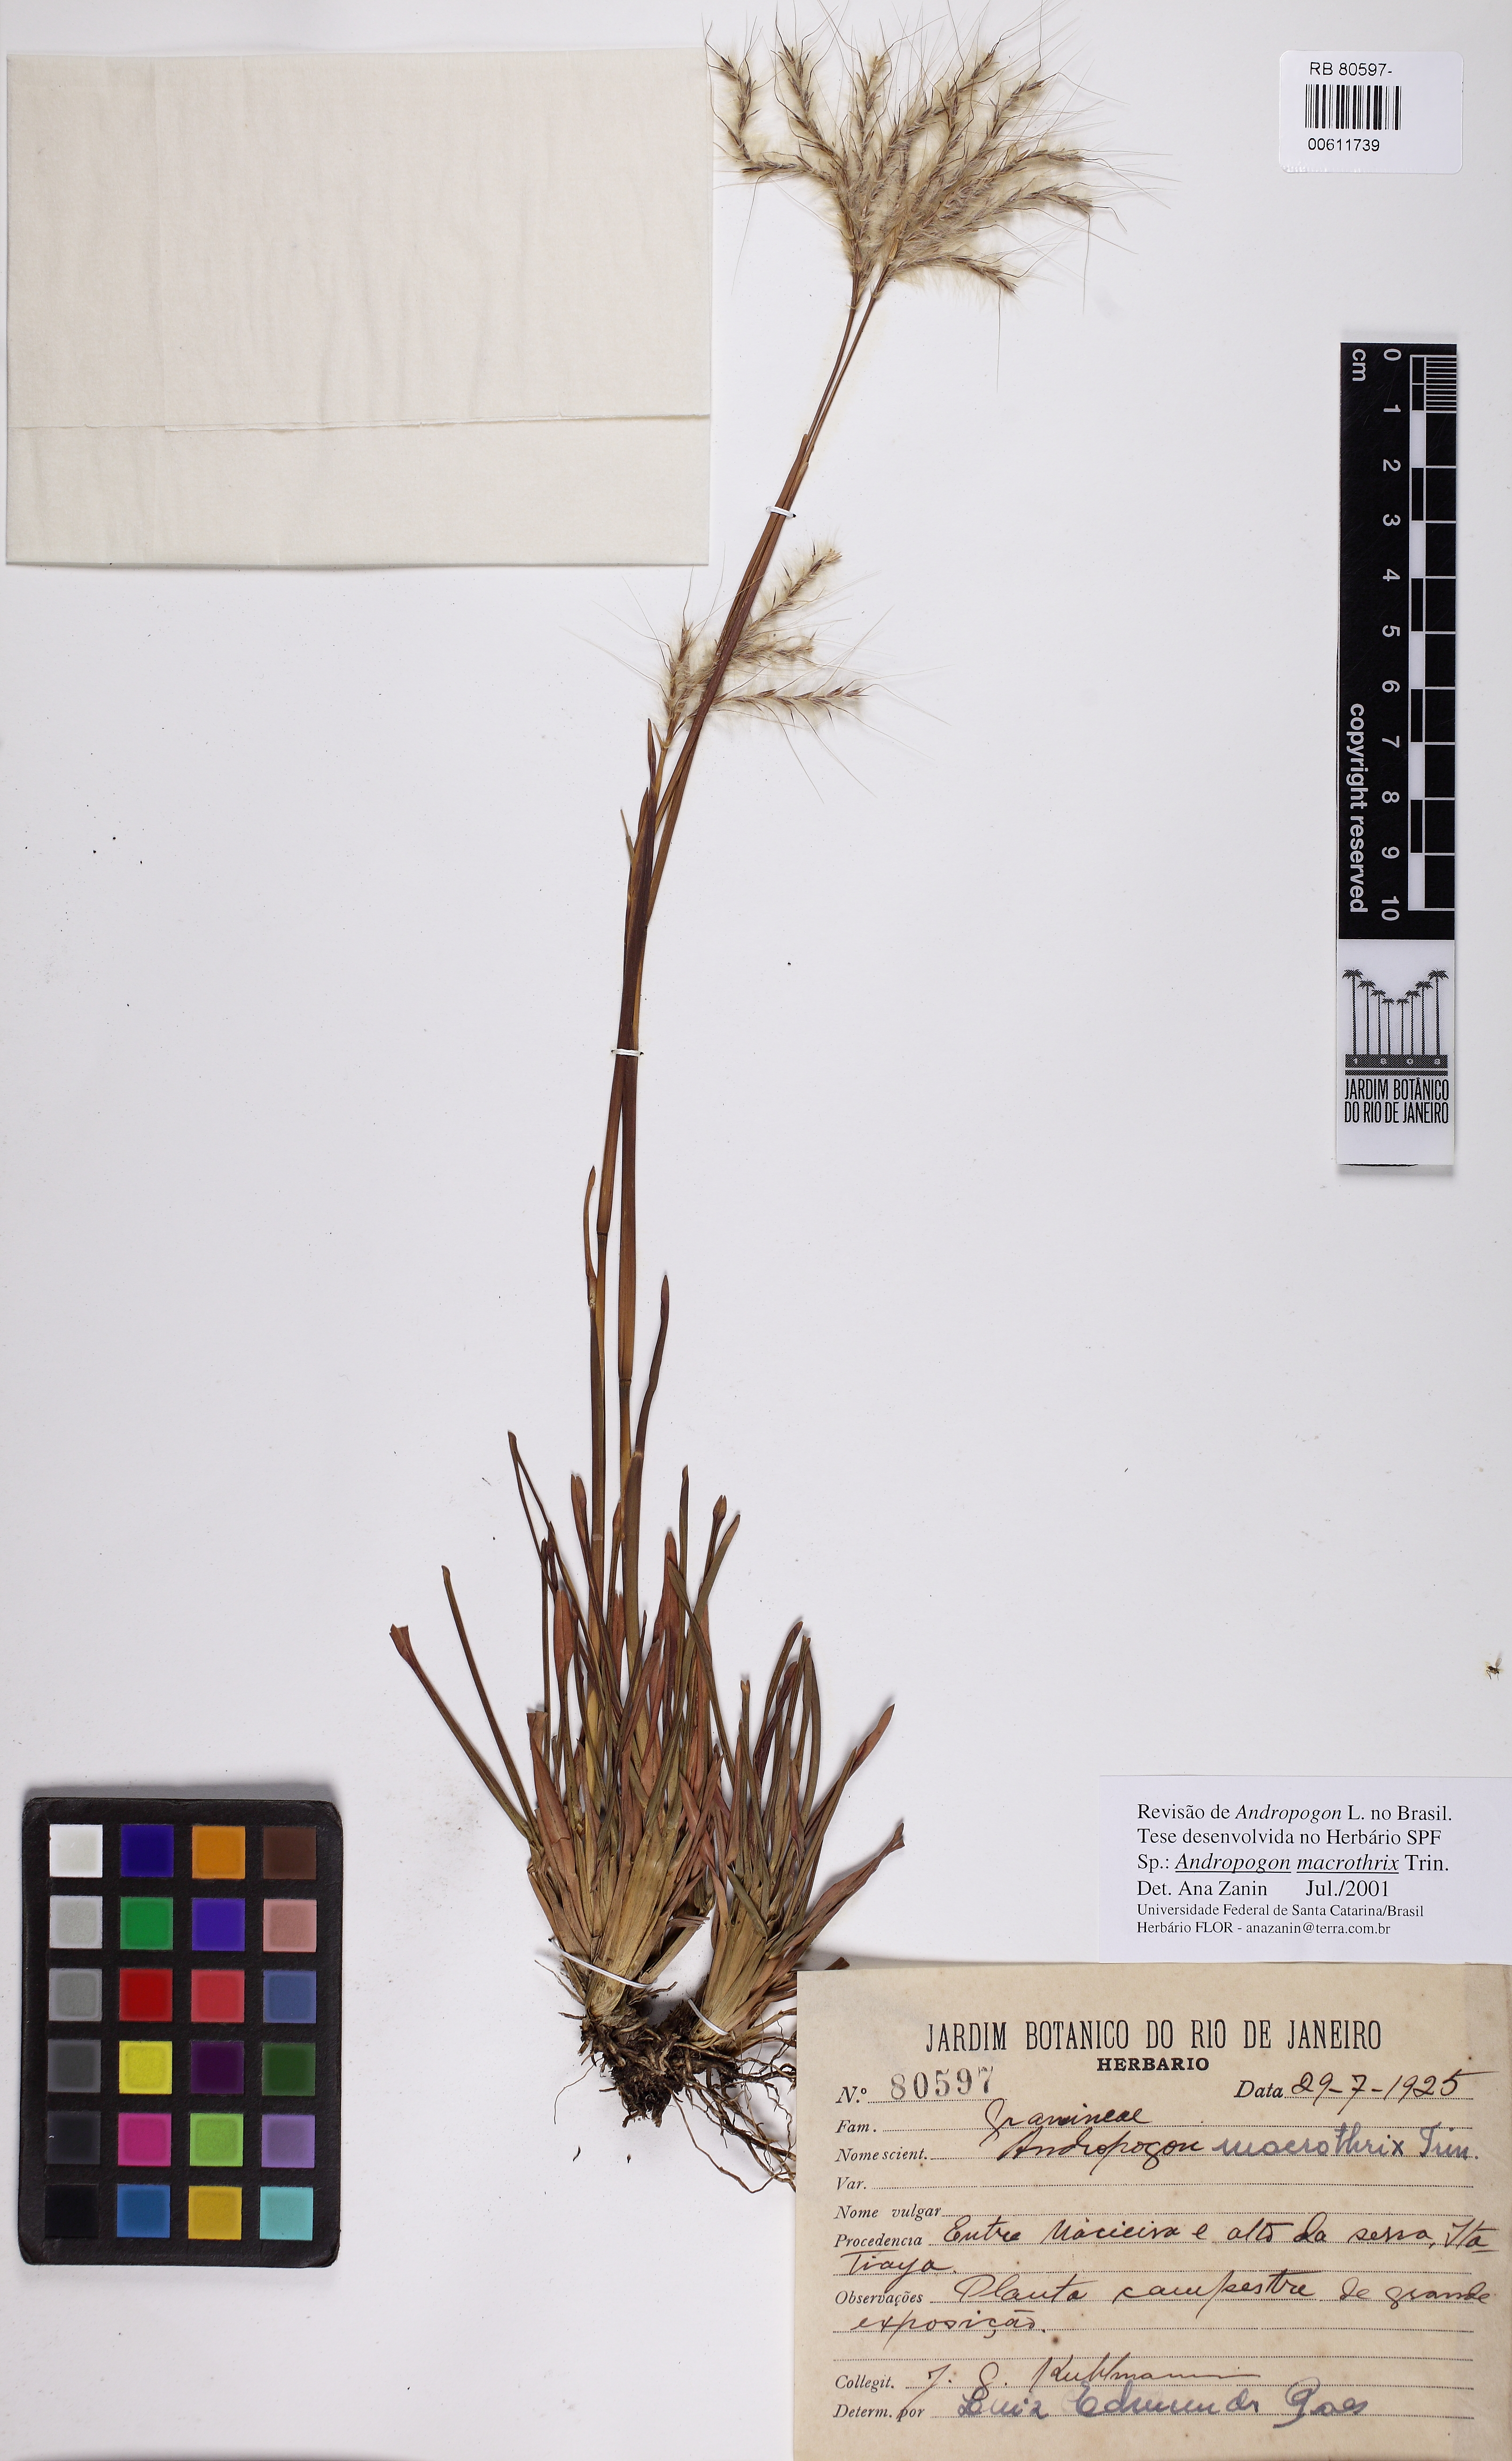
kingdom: Plantae
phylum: Tracheophyta
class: Liliopsida
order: Poales
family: Poaceae
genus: Andropogon
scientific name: Andropogon macrothrix
